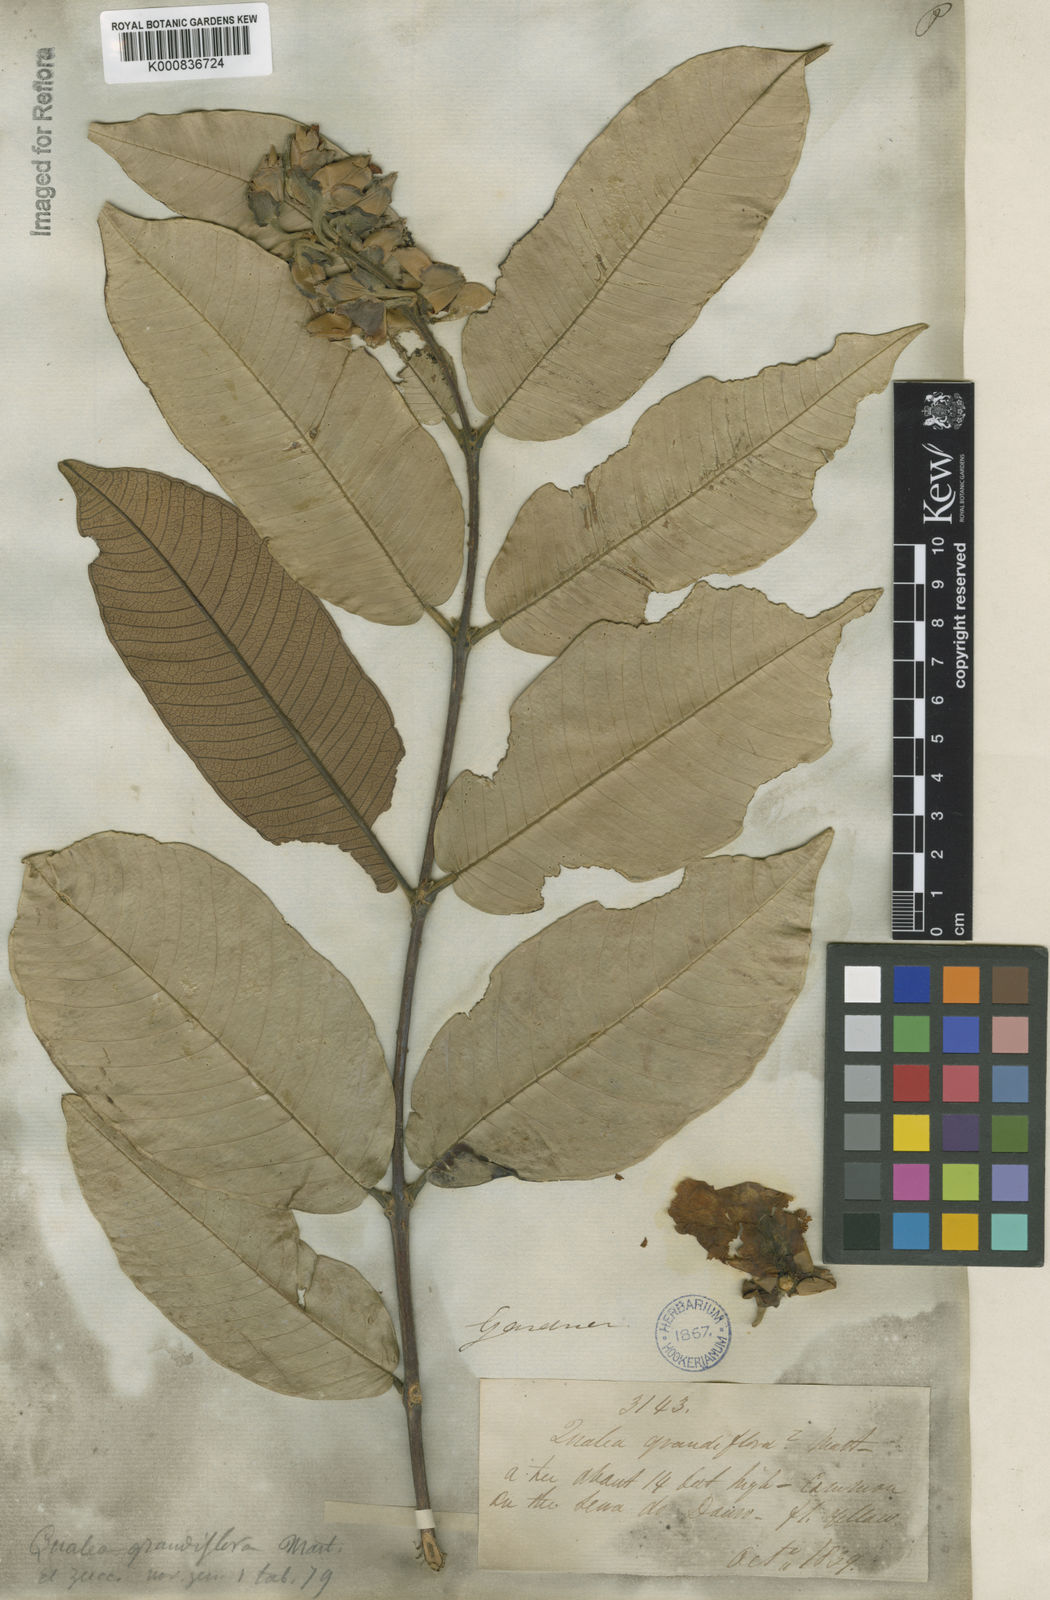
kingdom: Plantae
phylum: Tracheophyta
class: Magnoliopsida
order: Myrtales
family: Vochysiaceae
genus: Qualea
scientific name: Qualea grandiflora
